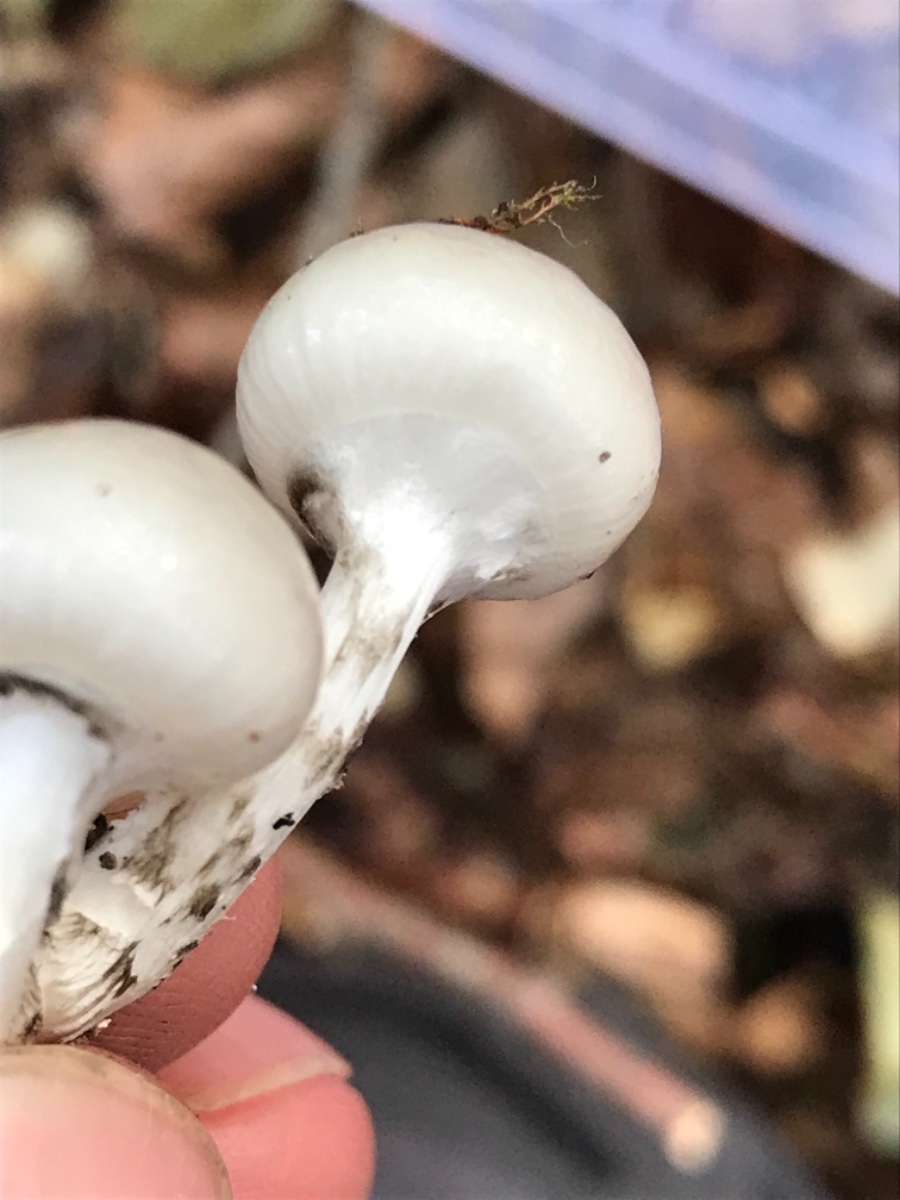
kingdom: Fungi
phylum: Basidiomycota
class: Agaricomycetes
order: Agaricales
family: Physalacriaceae
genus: Mucidula
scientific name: Mucidula mucida
